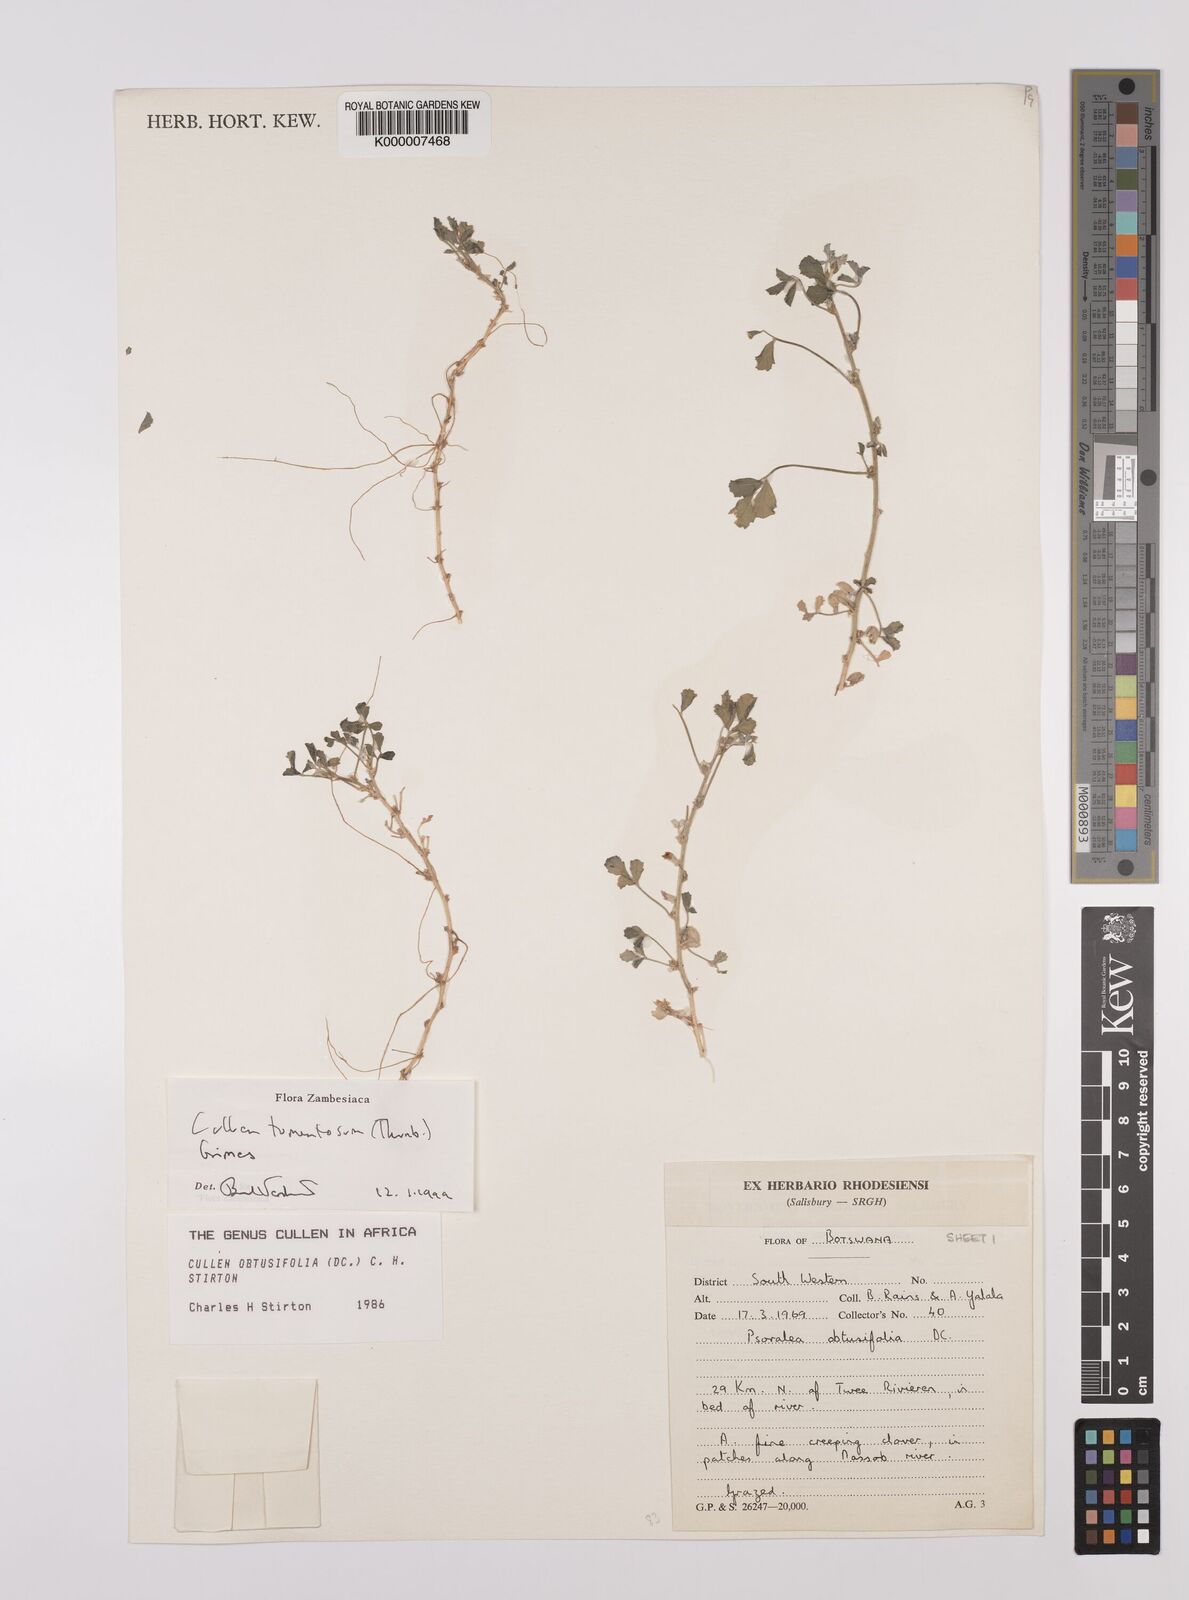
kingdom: Plantae
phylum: Tracheophyta
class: Magnoliopsida
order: Fabales
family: Fabaceae
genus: Cullen
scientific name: Cullen tomentosum
